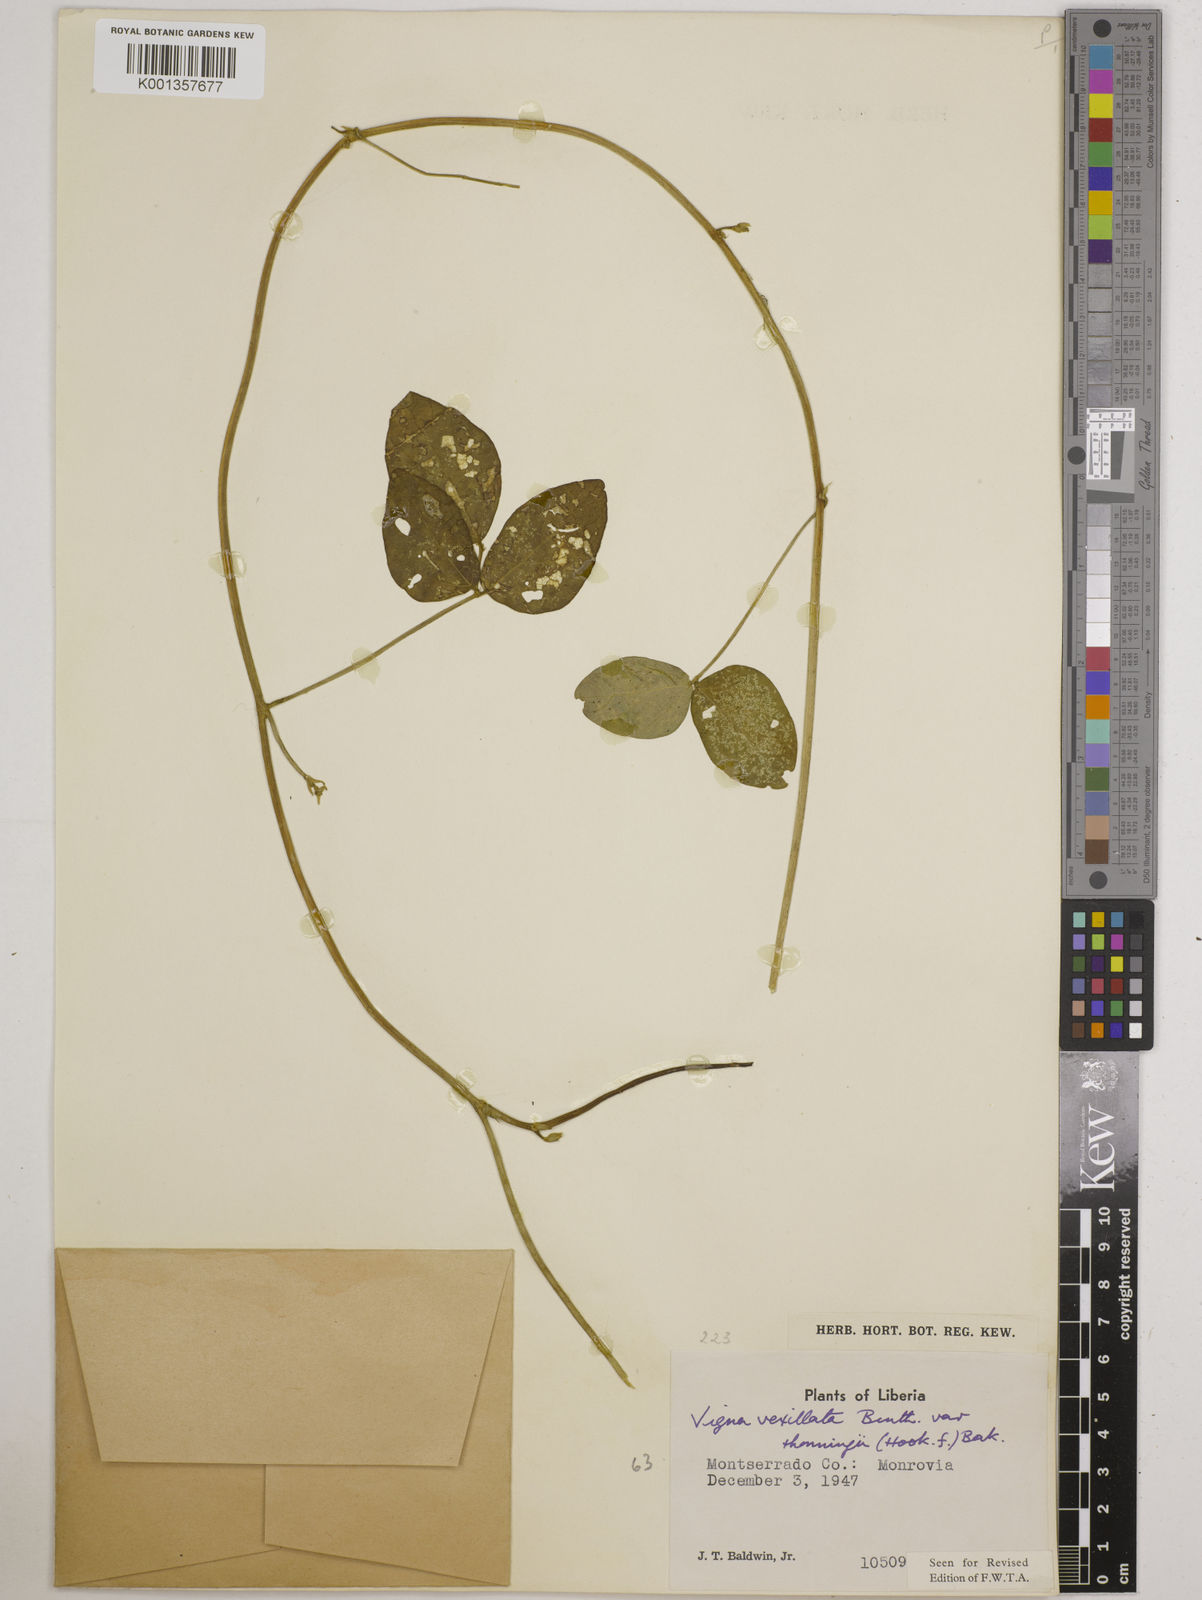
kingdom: Plantae
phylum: Tracheophyta
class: Magnoliopsida
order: Fabales
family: Fabaceae
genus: Vigna
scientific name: Vigna
